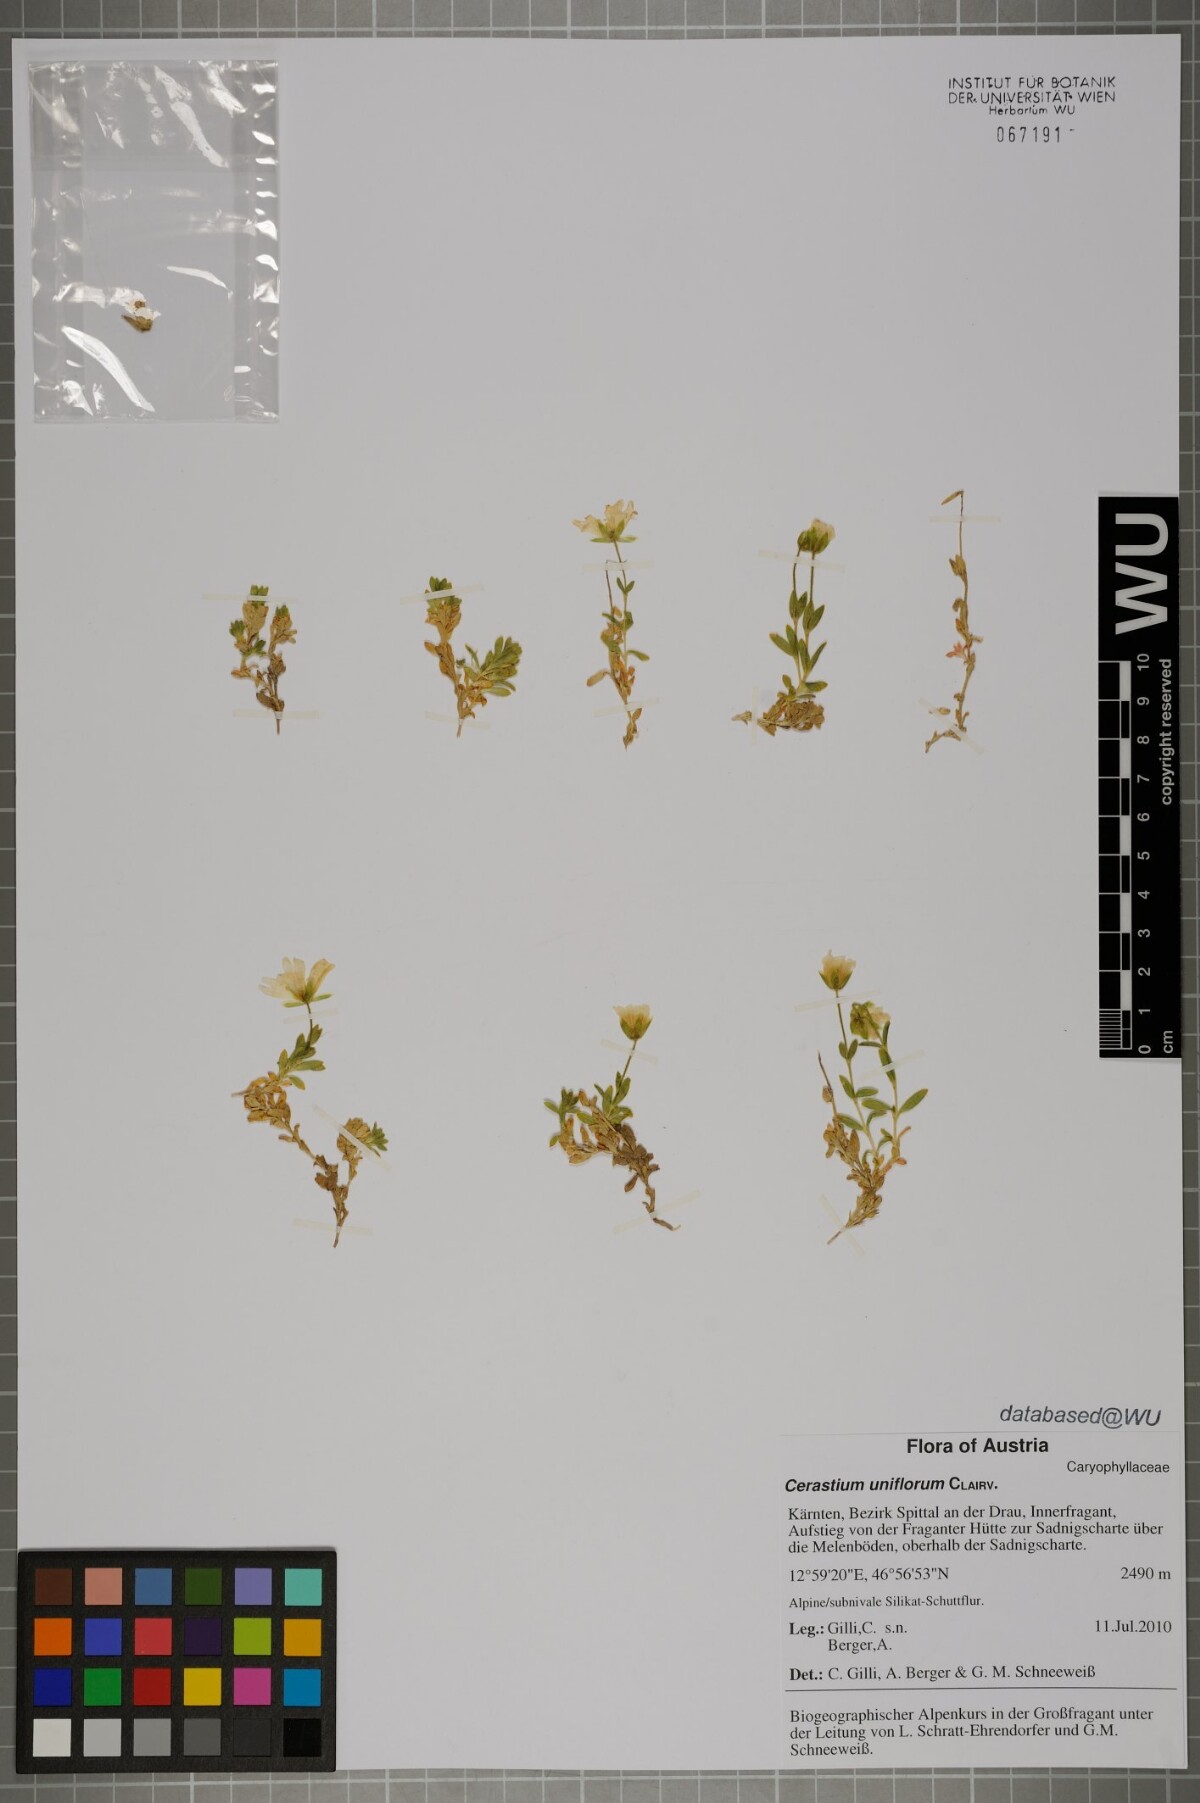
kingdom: Plantae
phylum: Tracheophyta
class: Magnoliopsida
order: Caryophyllales
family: Caryophyllaceae
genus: Cerastium
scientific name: Cerastium uniflorum
